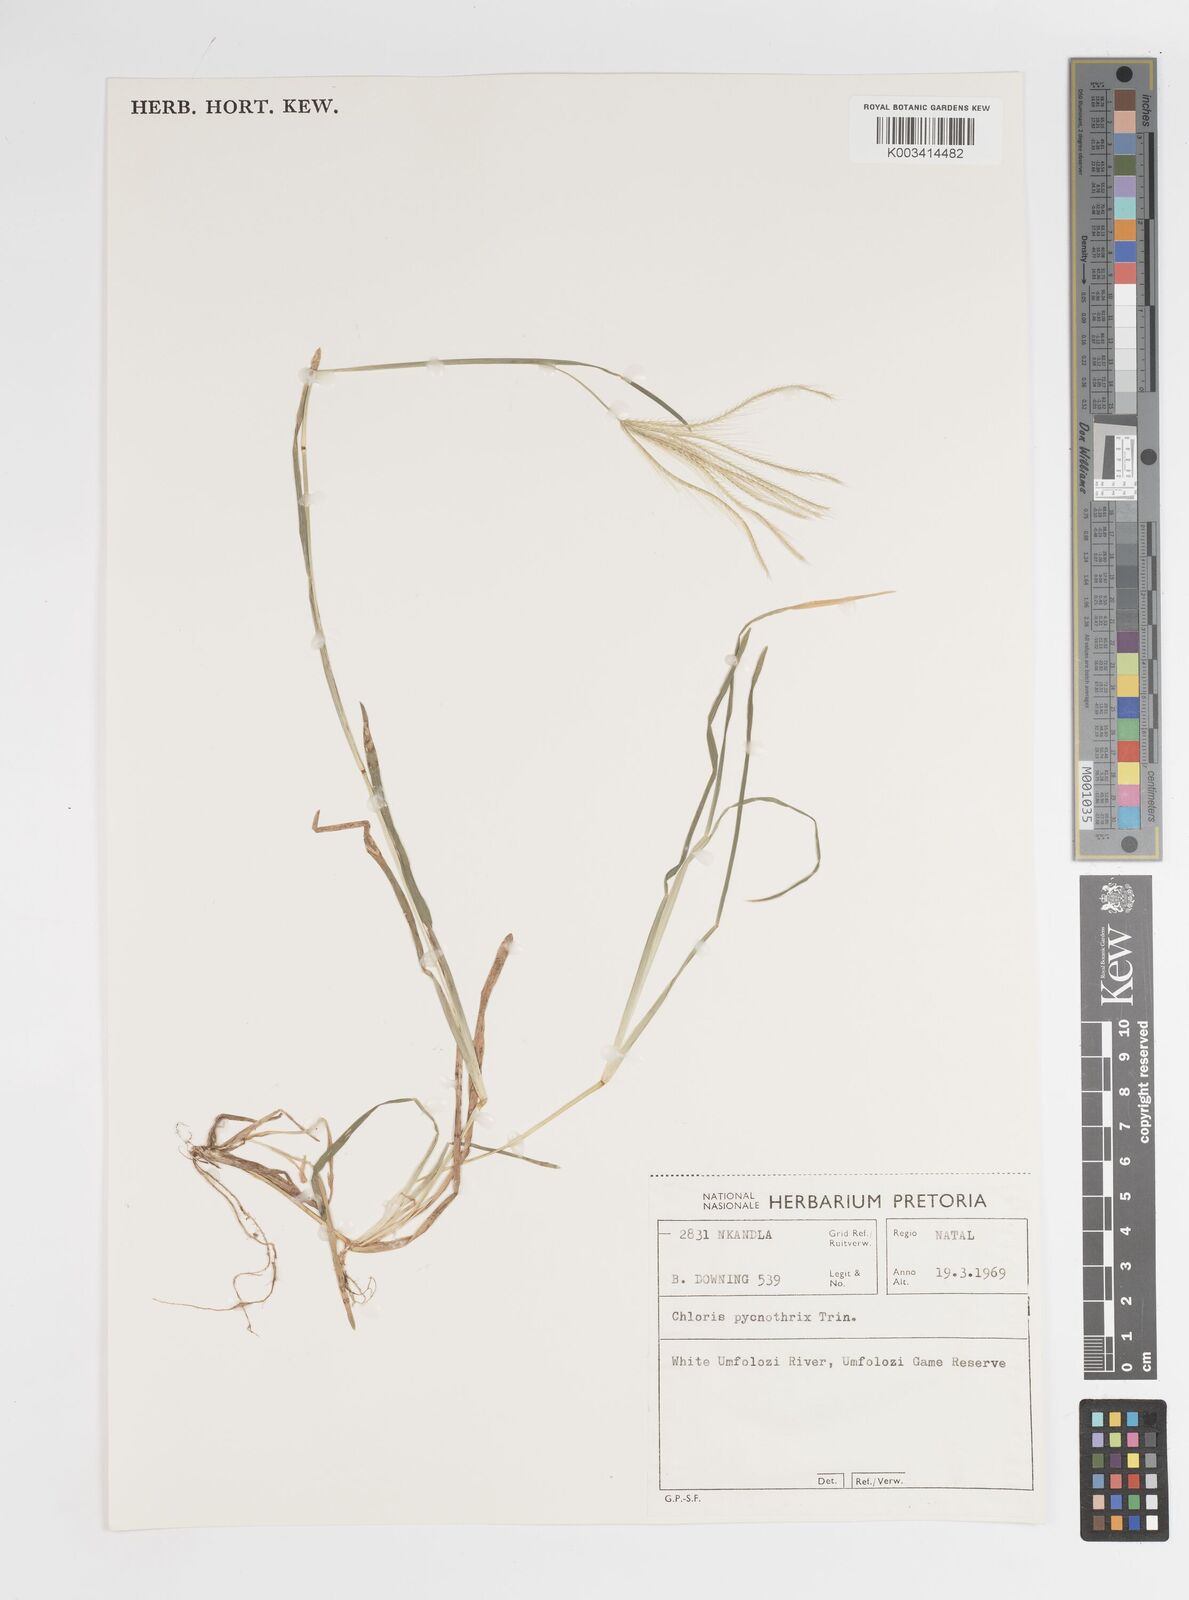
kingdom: Plantae
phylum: Tracheophyta
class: Liliopsida
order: Poales
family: Poaceae
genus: Chloris
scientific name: Chloris pycnothrix
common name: Spiderweb chloris
